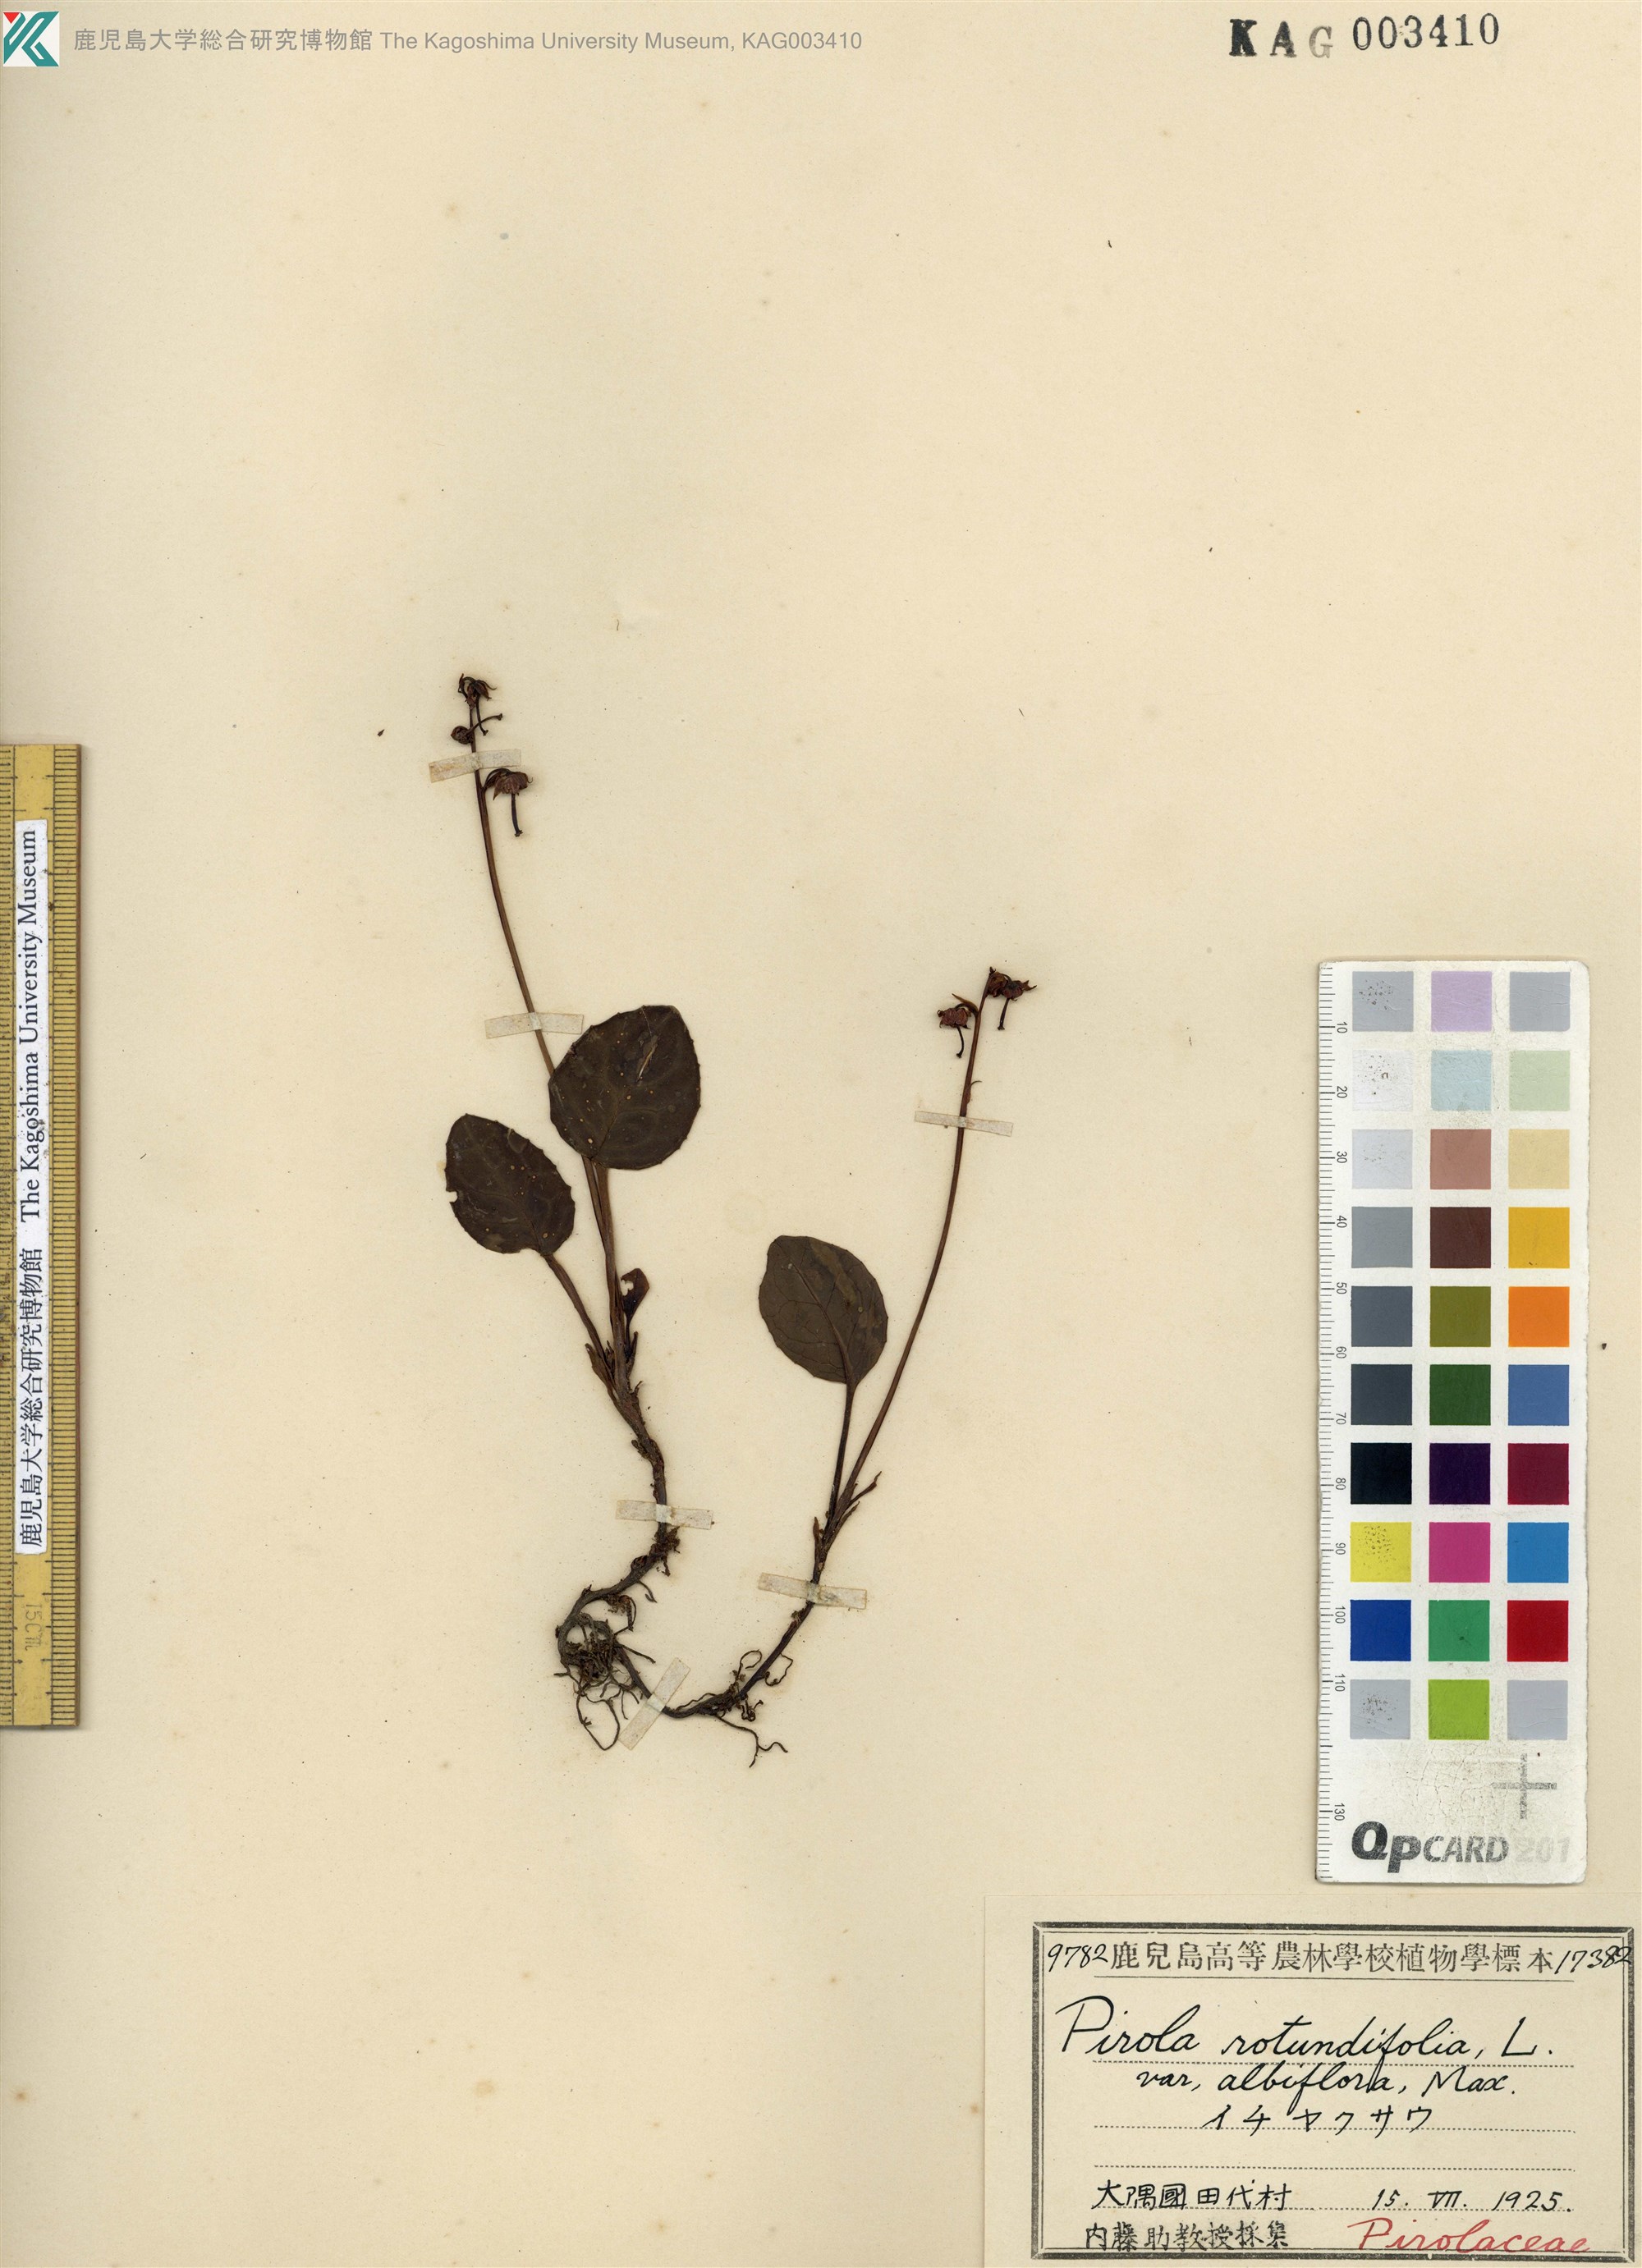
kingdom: Plantae
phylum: Tracheophyta
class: Magnoliopsida
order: Ericales
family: Ericaceae
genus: Pyrola
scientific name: Pyrola japonica
